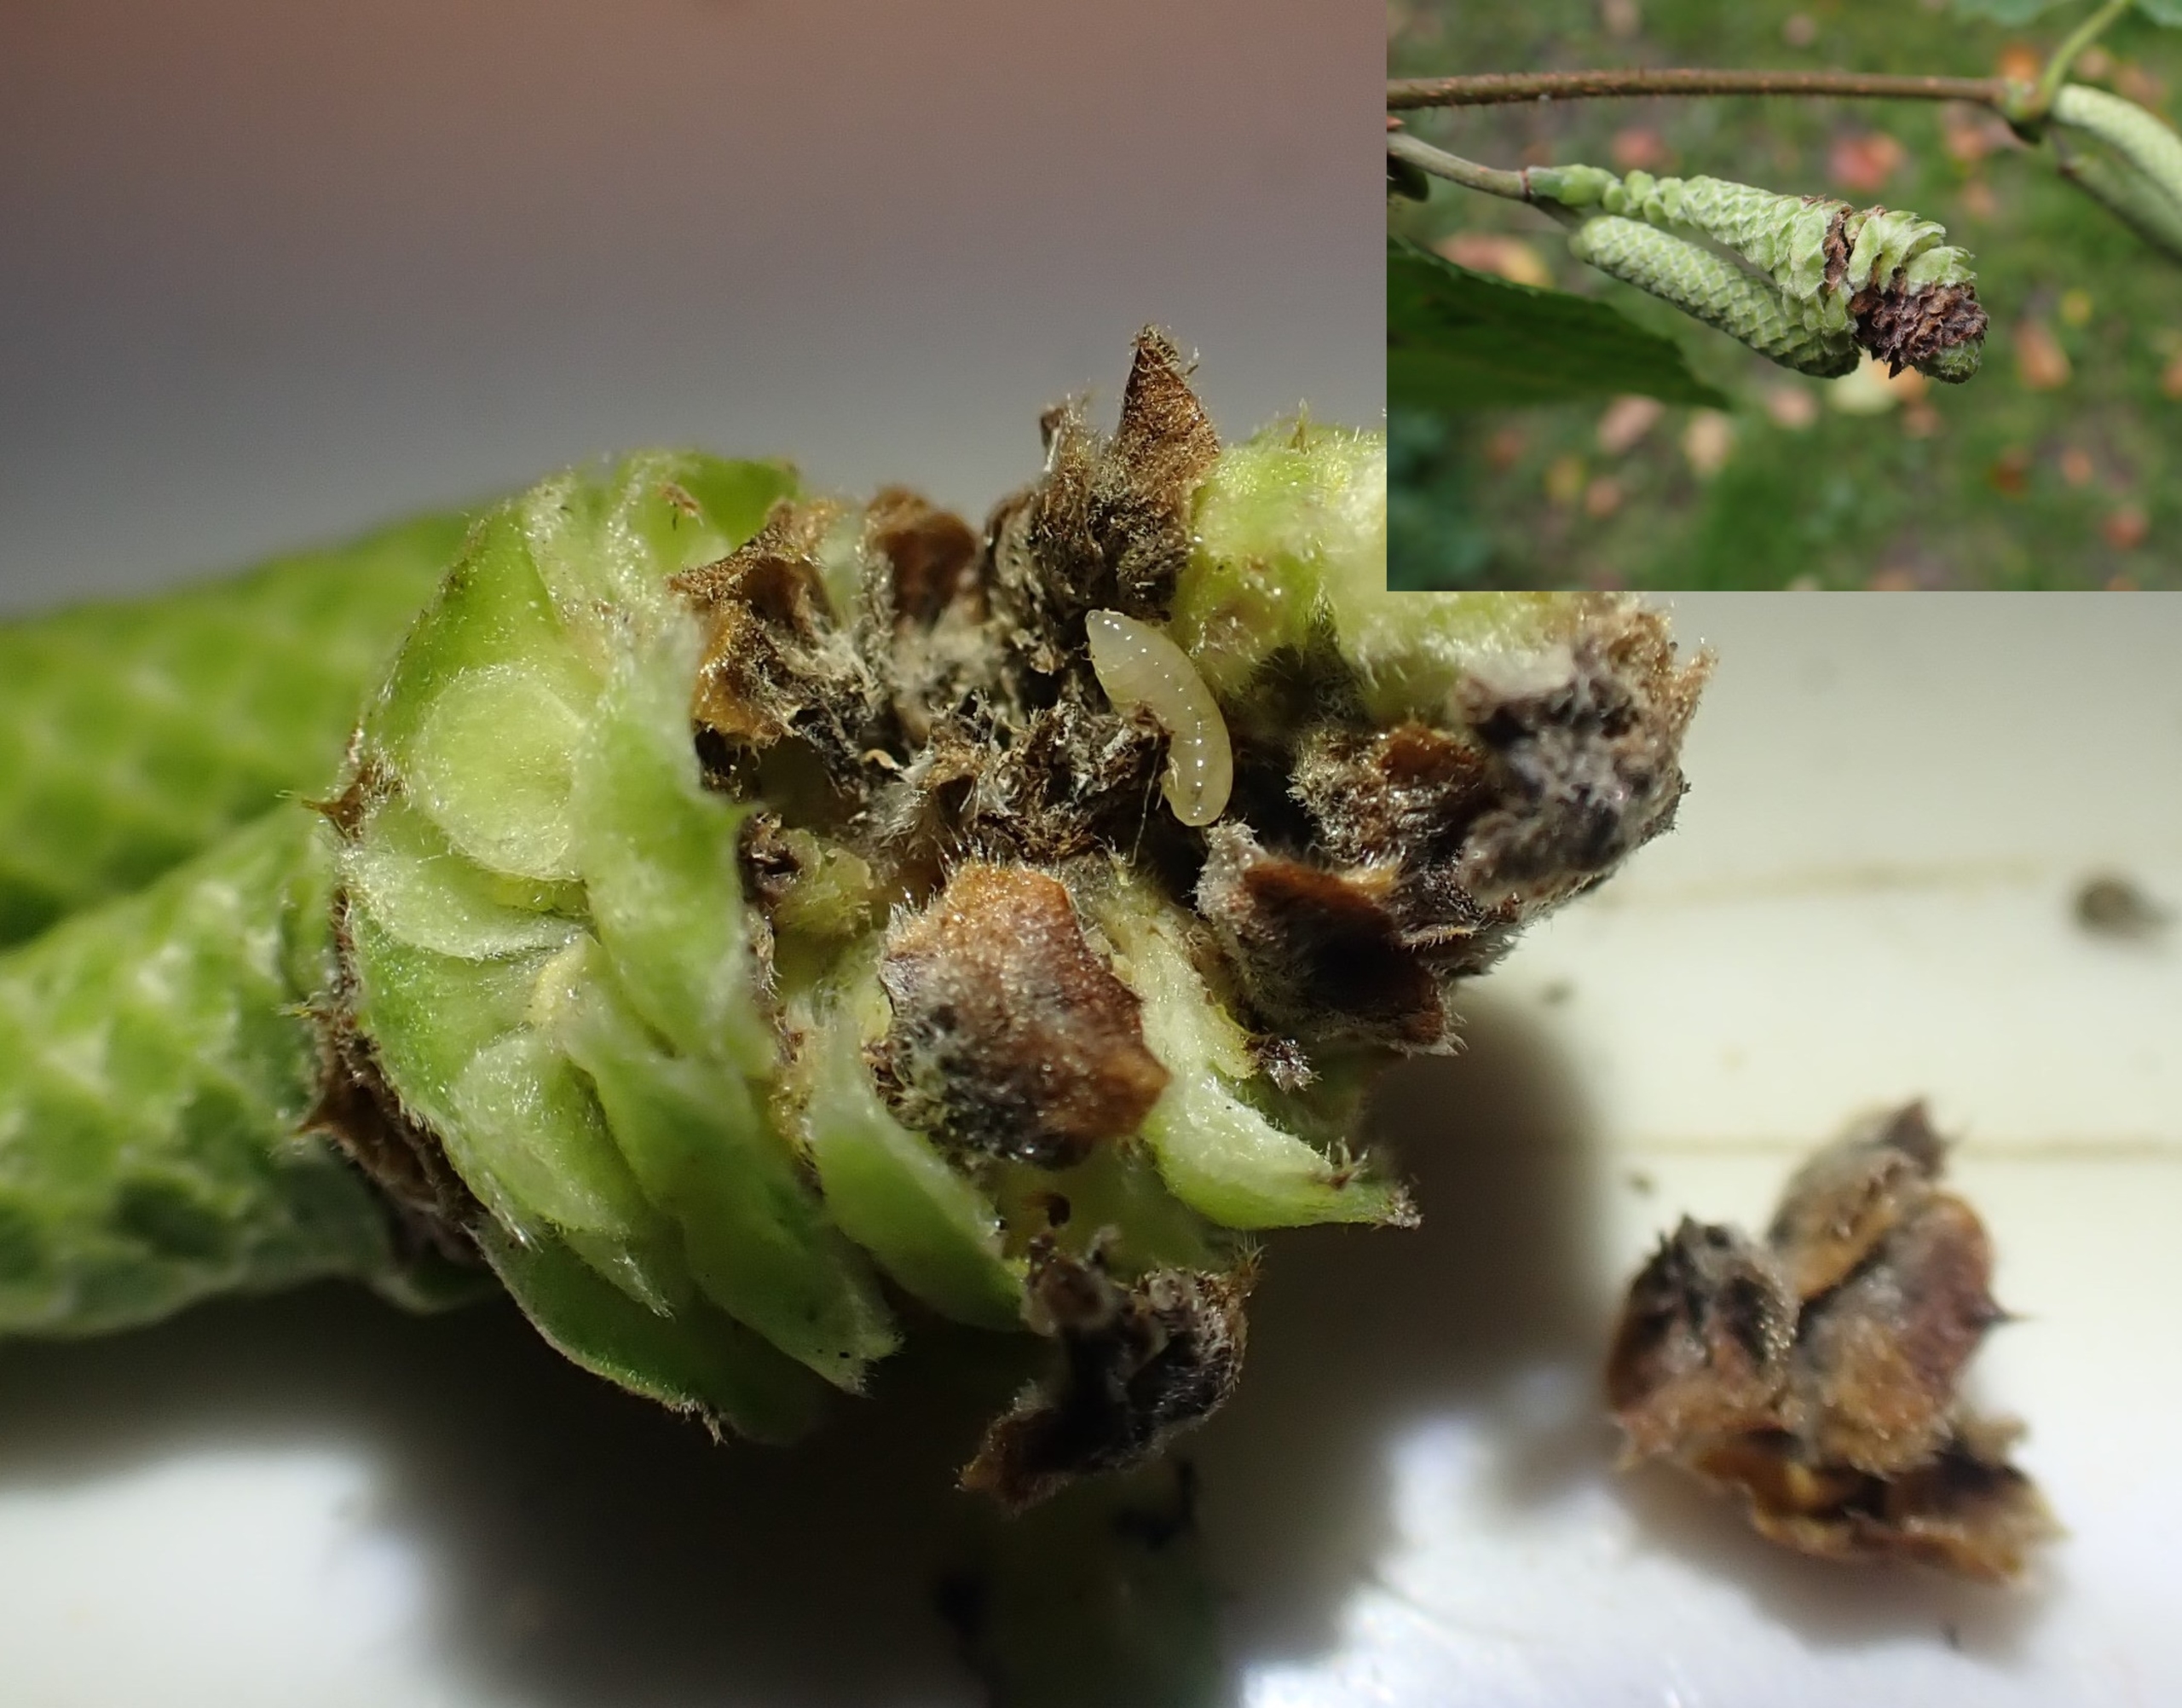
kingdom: Animalia
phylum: Arthropoda
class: Insecta
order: Diptera
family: Cecidomyiidae
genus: Contarinia
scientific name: Contarinia coryli
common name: Hasselraklegalmyg
